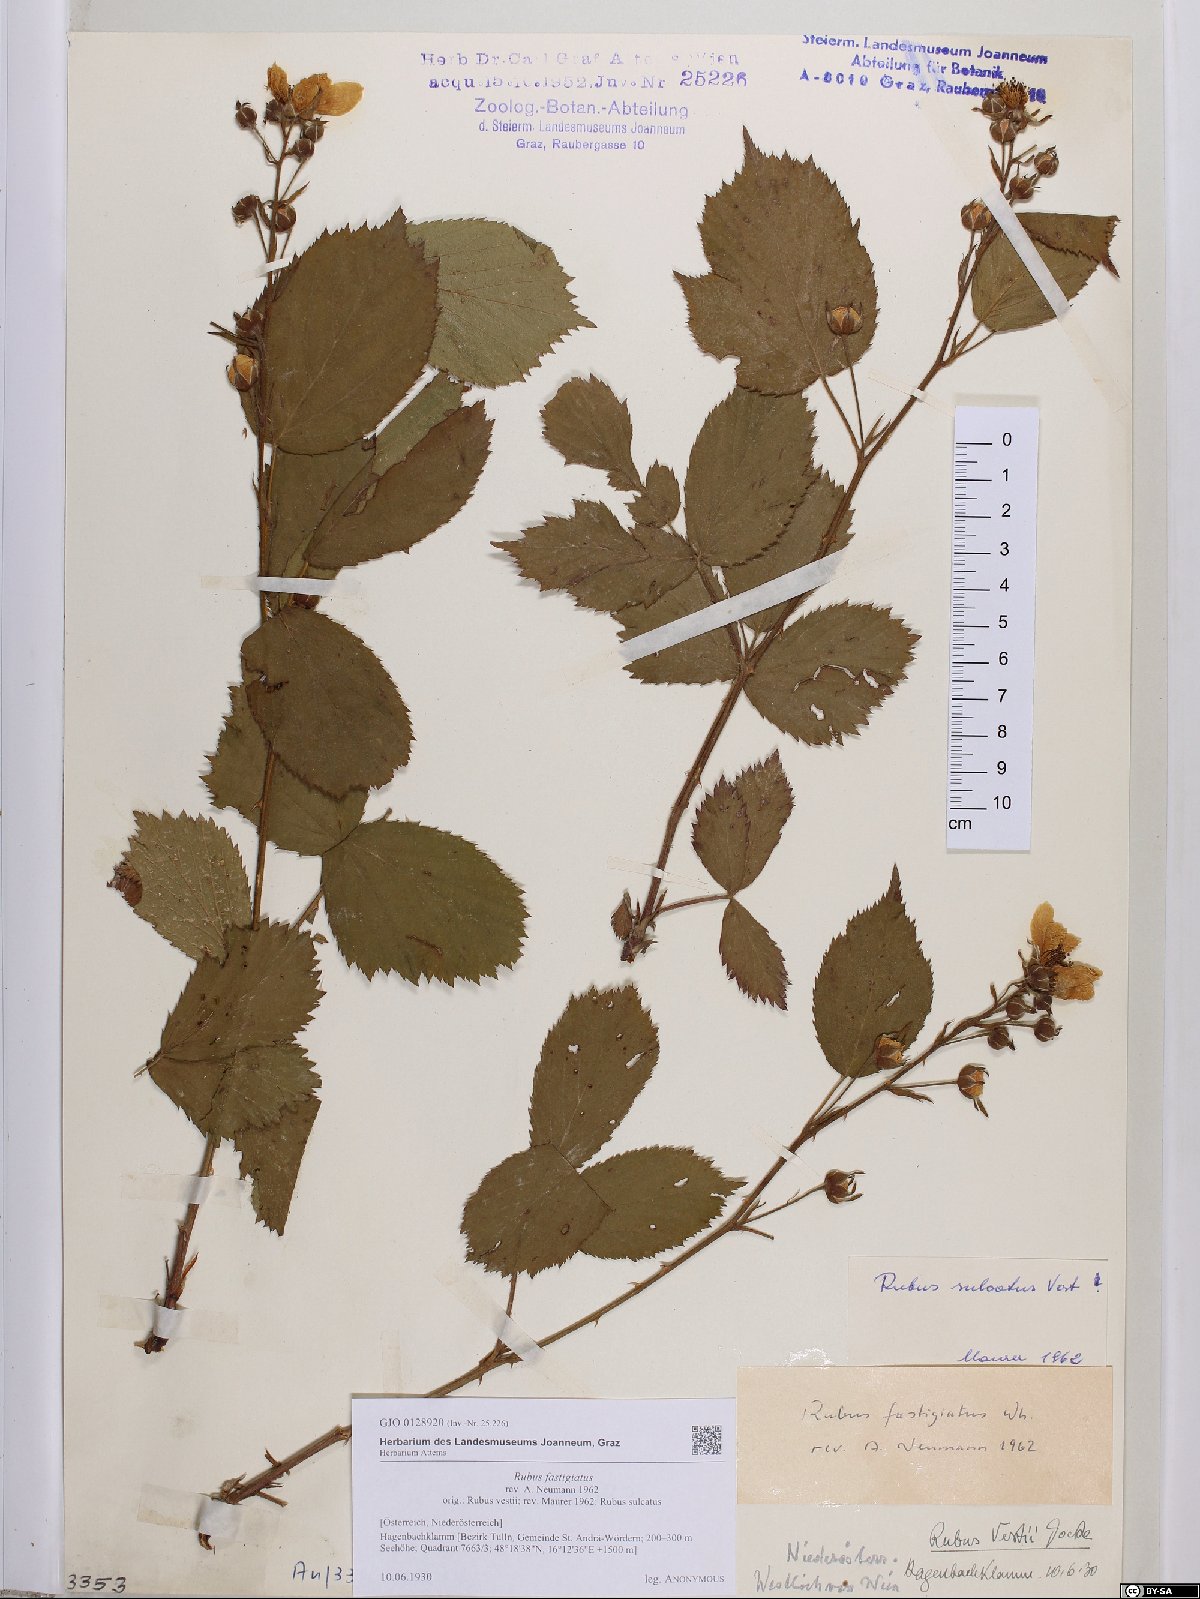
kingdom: Plantae
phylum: Tracheophyta
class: Magnoliopsida
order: Rosales
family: Rosaceae
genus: Rubus
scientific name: Rubus polonicus
